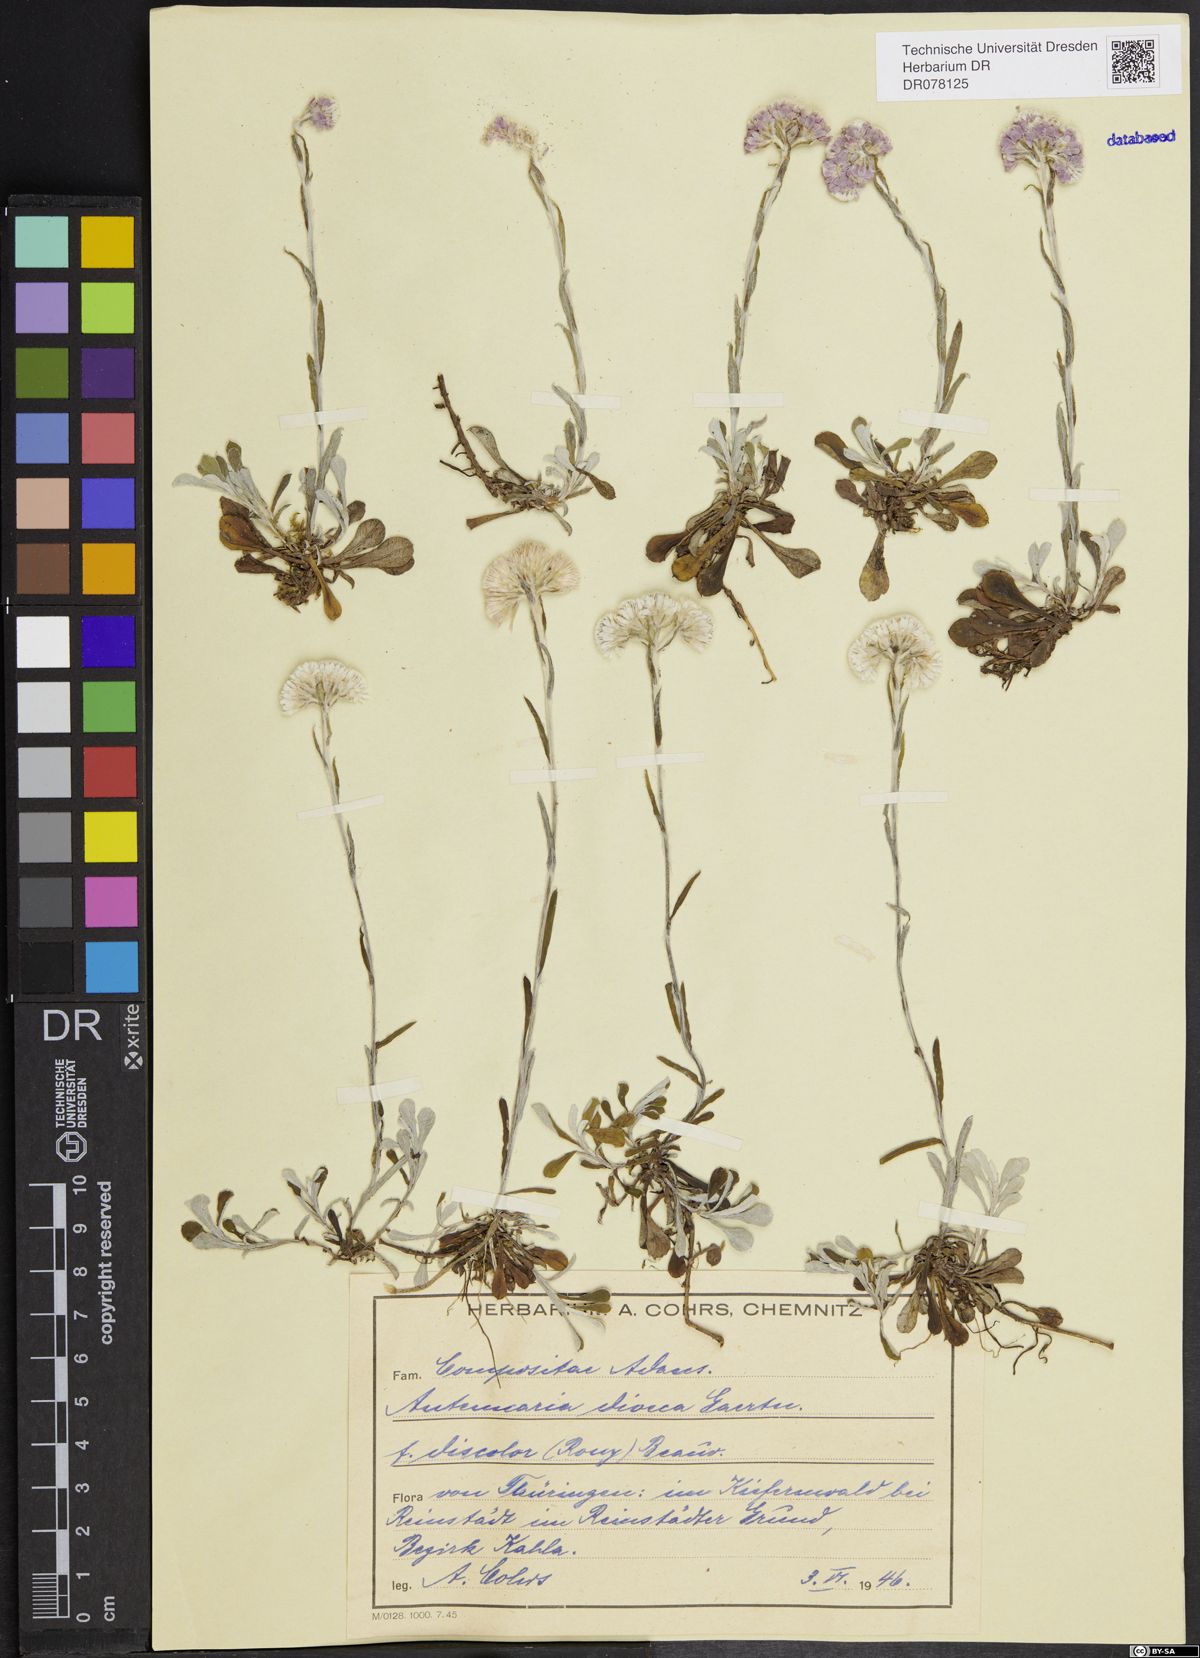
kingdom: Plantae
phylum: Tracheophyta
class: Magnoliopsida
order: Asterales
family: Asteraceae
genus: Antennaria
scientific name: Antennaria dioica
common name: Mountain everlasting
